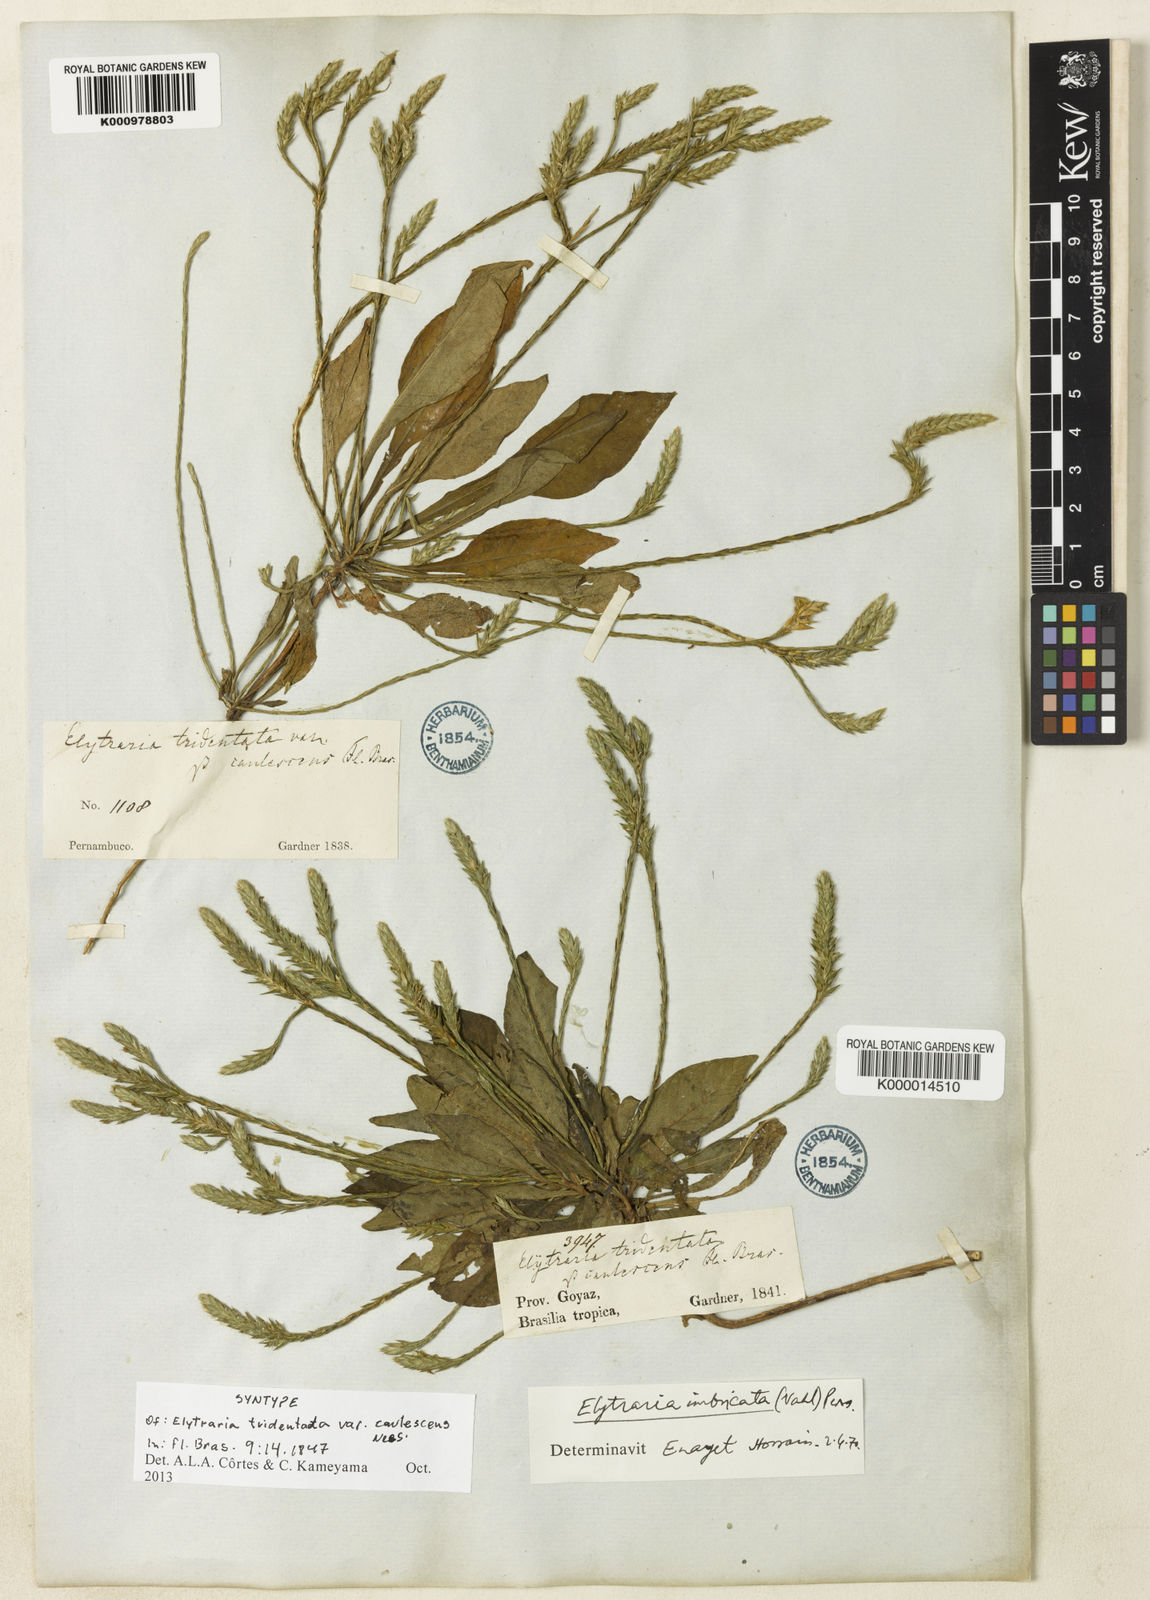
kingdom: Plantae
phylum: Tracheophyta
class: Magnoliopsida
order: Lamiales
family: Acanthaceae
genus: Elytraria
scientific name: Elytraria imbricata
